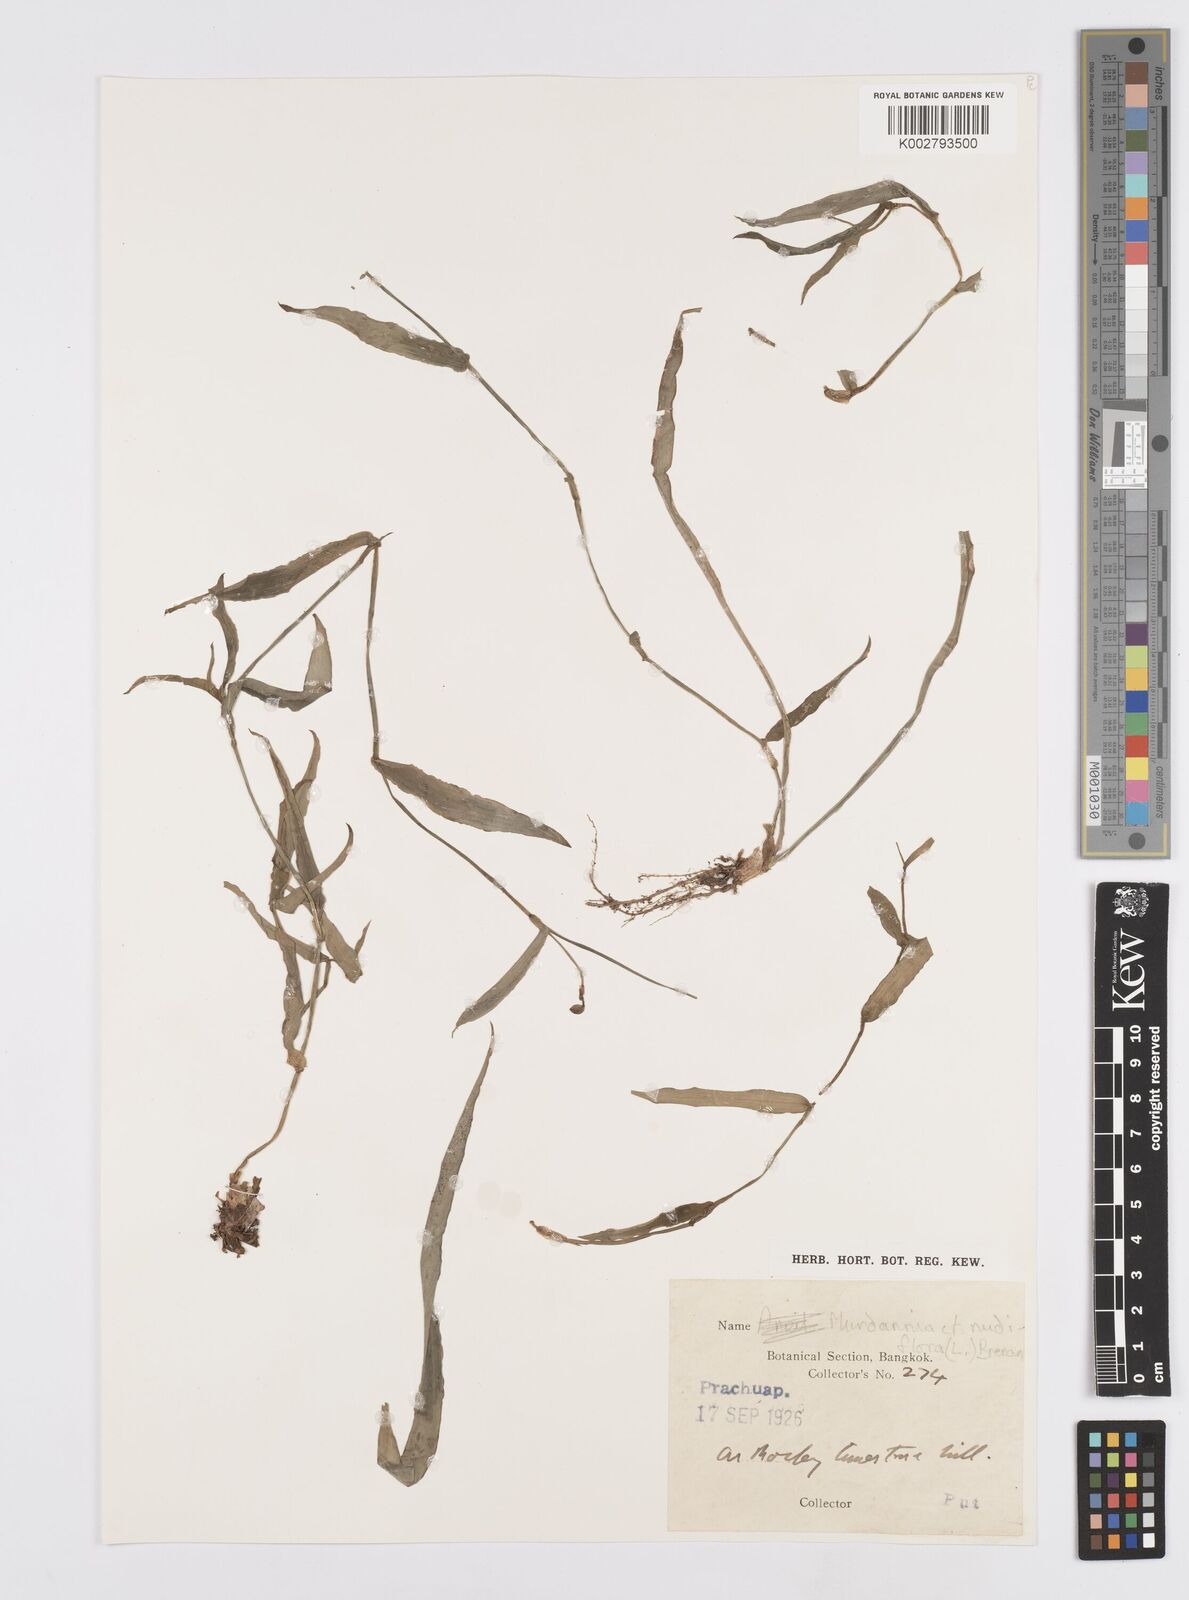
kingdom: Plantae
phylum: Tracheophyta
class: Liliopsida
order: Commelinales
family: Commelinaceae
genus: Murdannia
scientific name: Murdannia nudiflora
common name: Nakedstem dewflower
